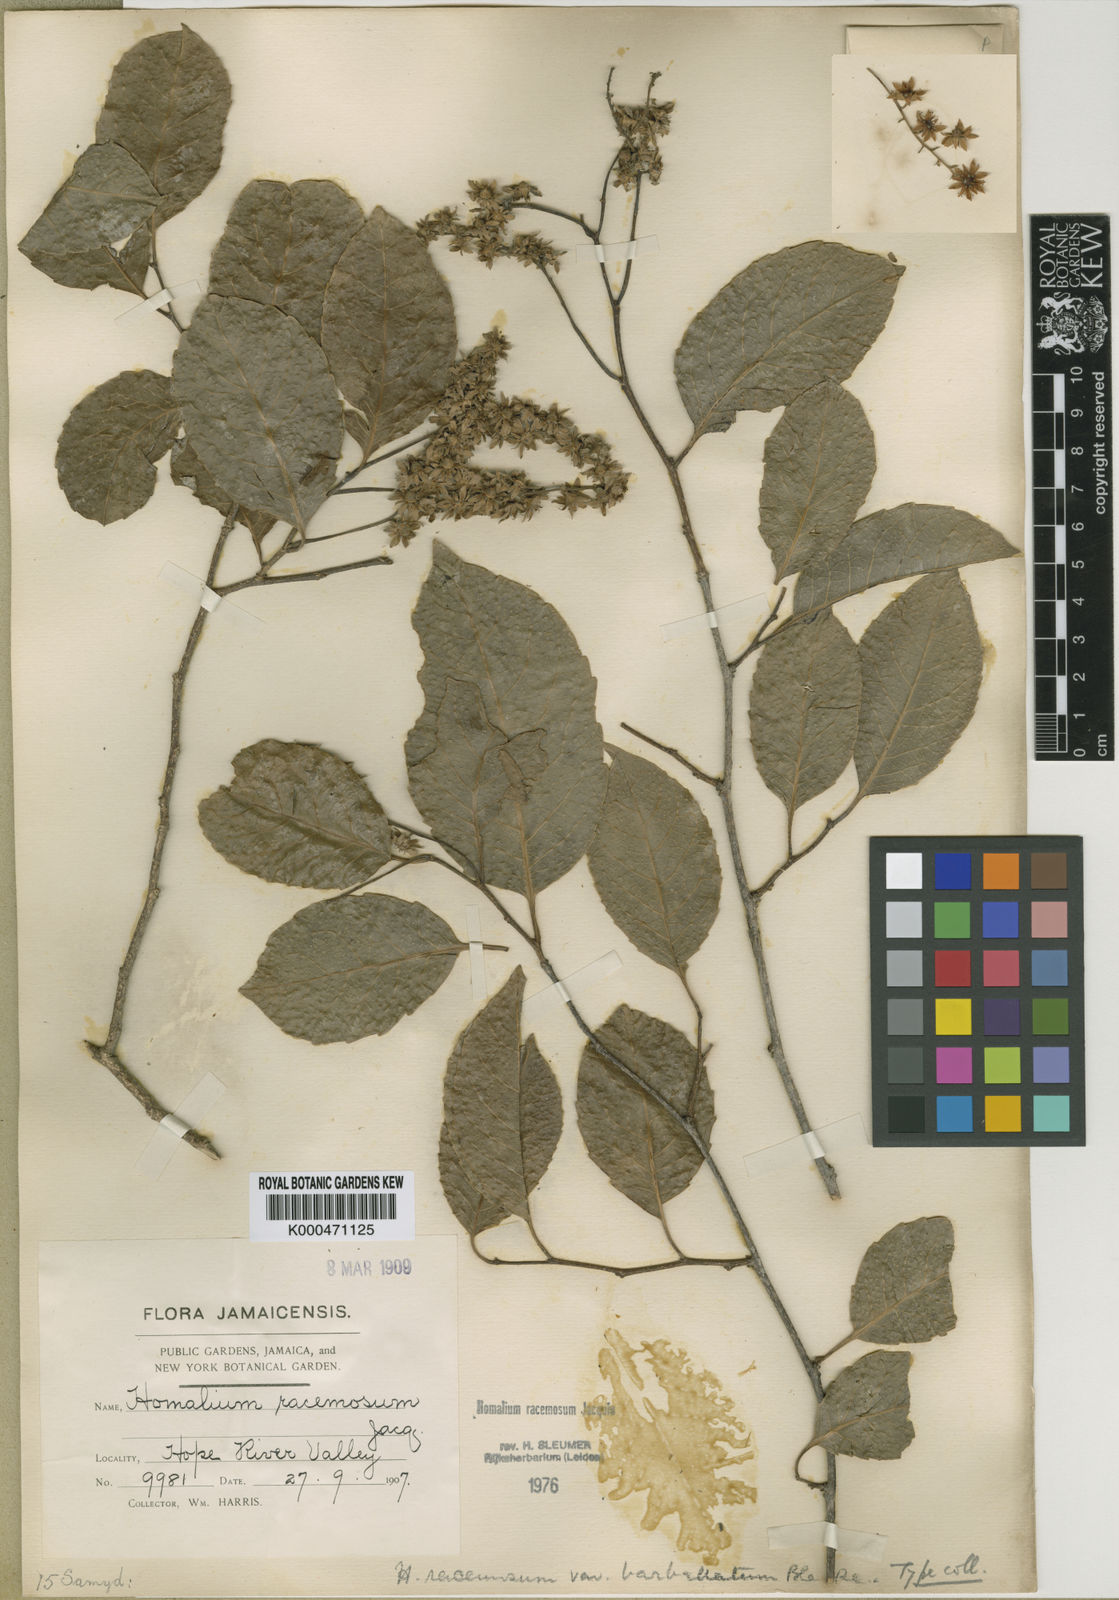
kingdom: Plantae
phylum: Tracheophyta
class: Magnoliopsida
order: Malpighiales
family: Salicaceae
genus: Homalium
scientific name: Homalium racemosum
